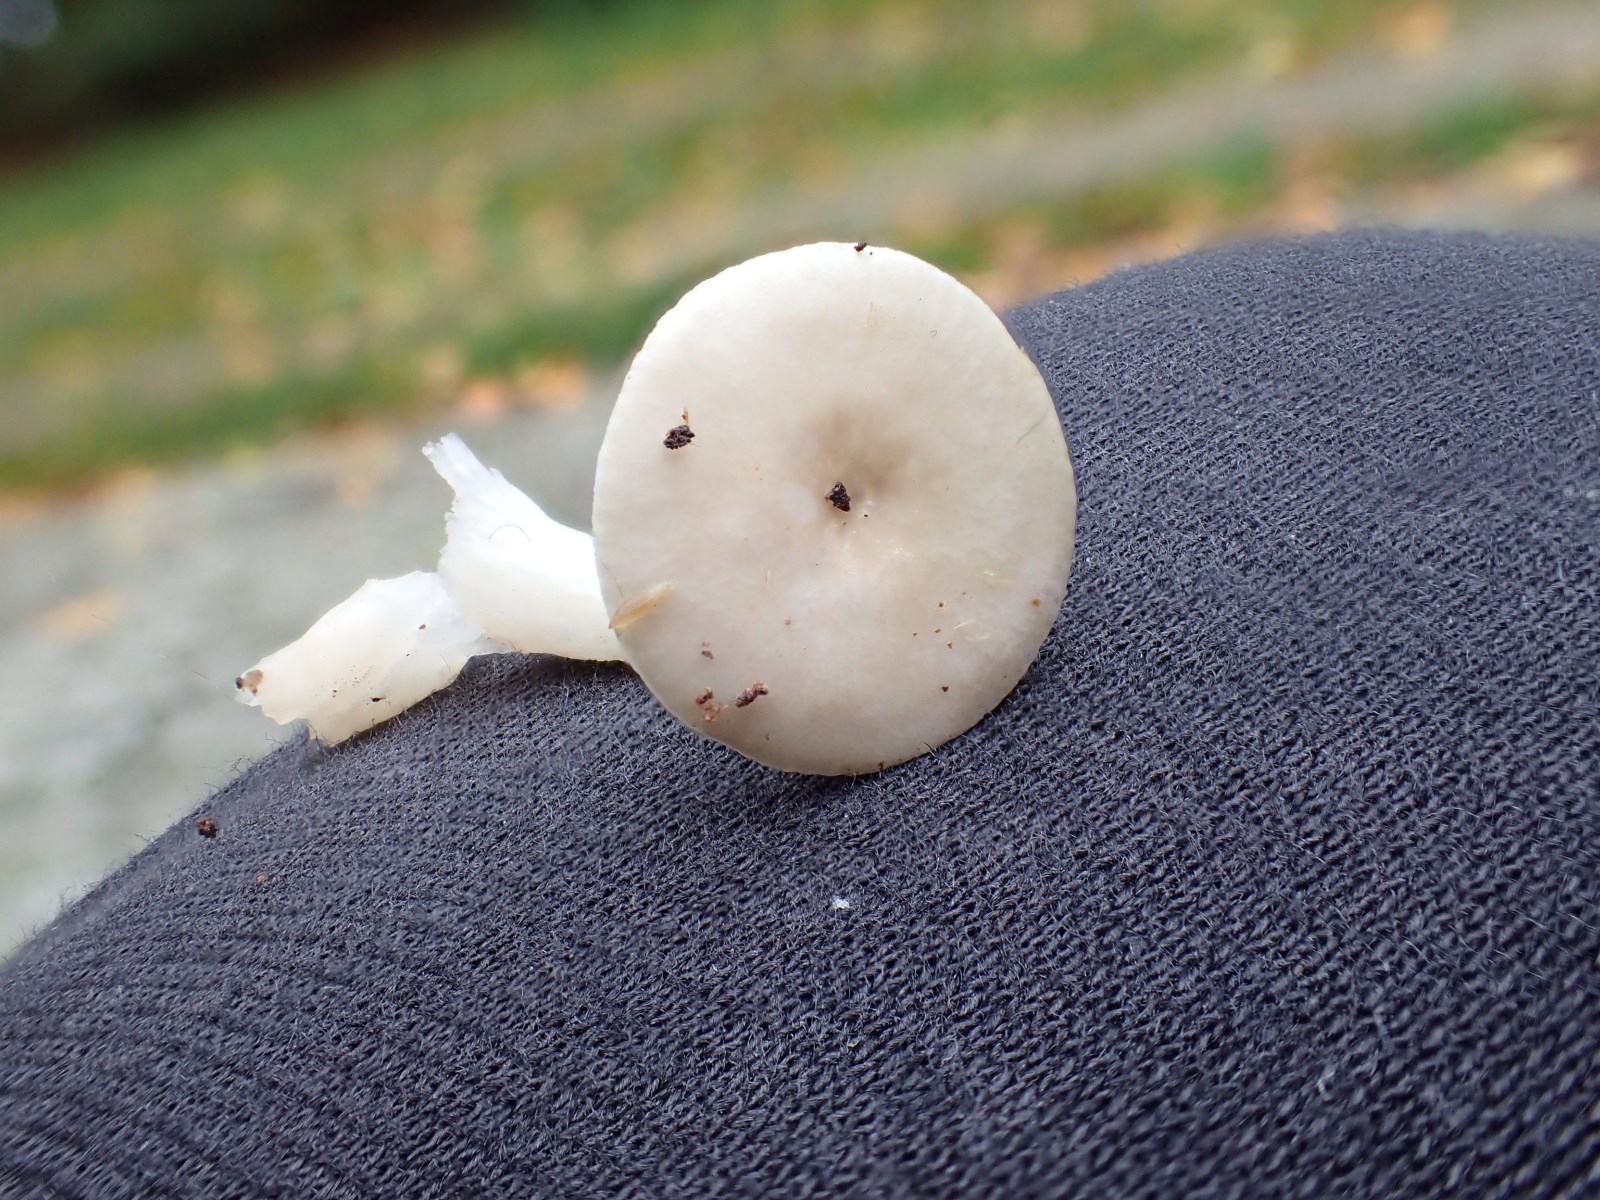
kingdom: Fungi
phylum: Basidiomycota
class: Agaricomycetes
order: Russulales
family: Russulaceae
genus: Russula
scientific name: Russula betularum
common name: bleg gift-skørhat
